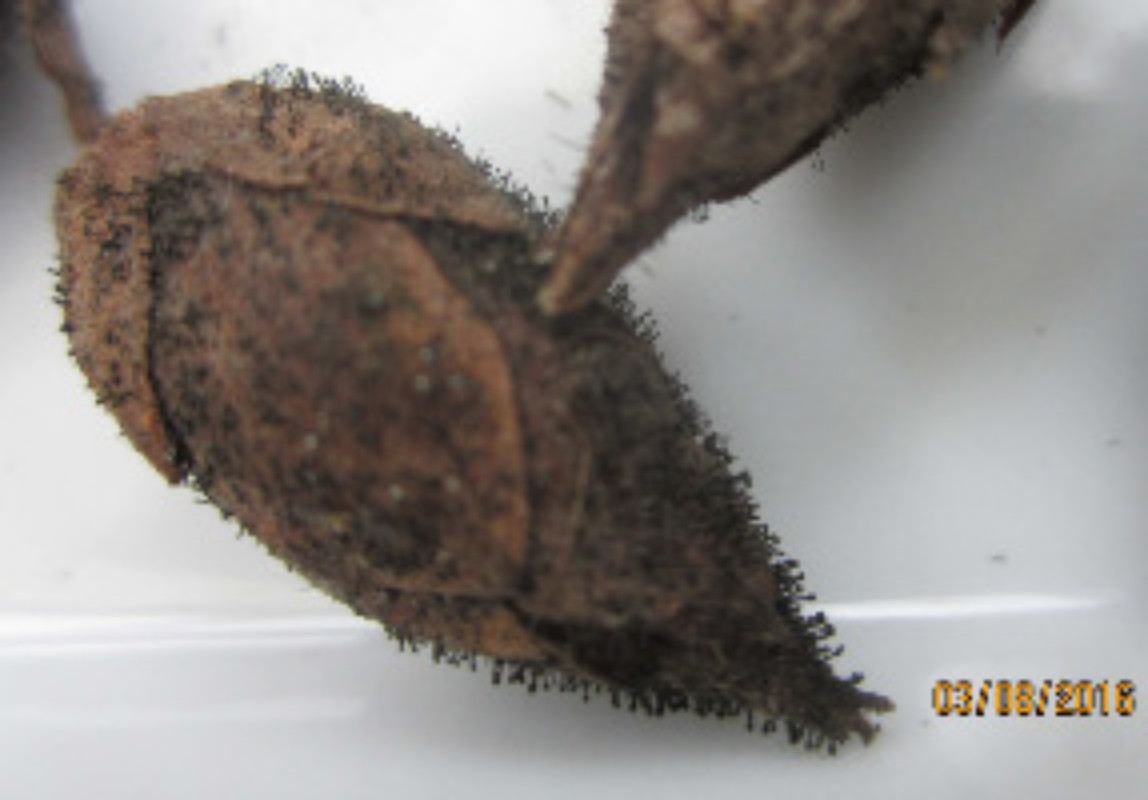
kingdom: Fungi
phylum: Ascomycota
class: Dothideomycetes
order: Pleosporales
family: Melanommataceae
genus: Seifertia
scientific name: Seifertia azaleae
